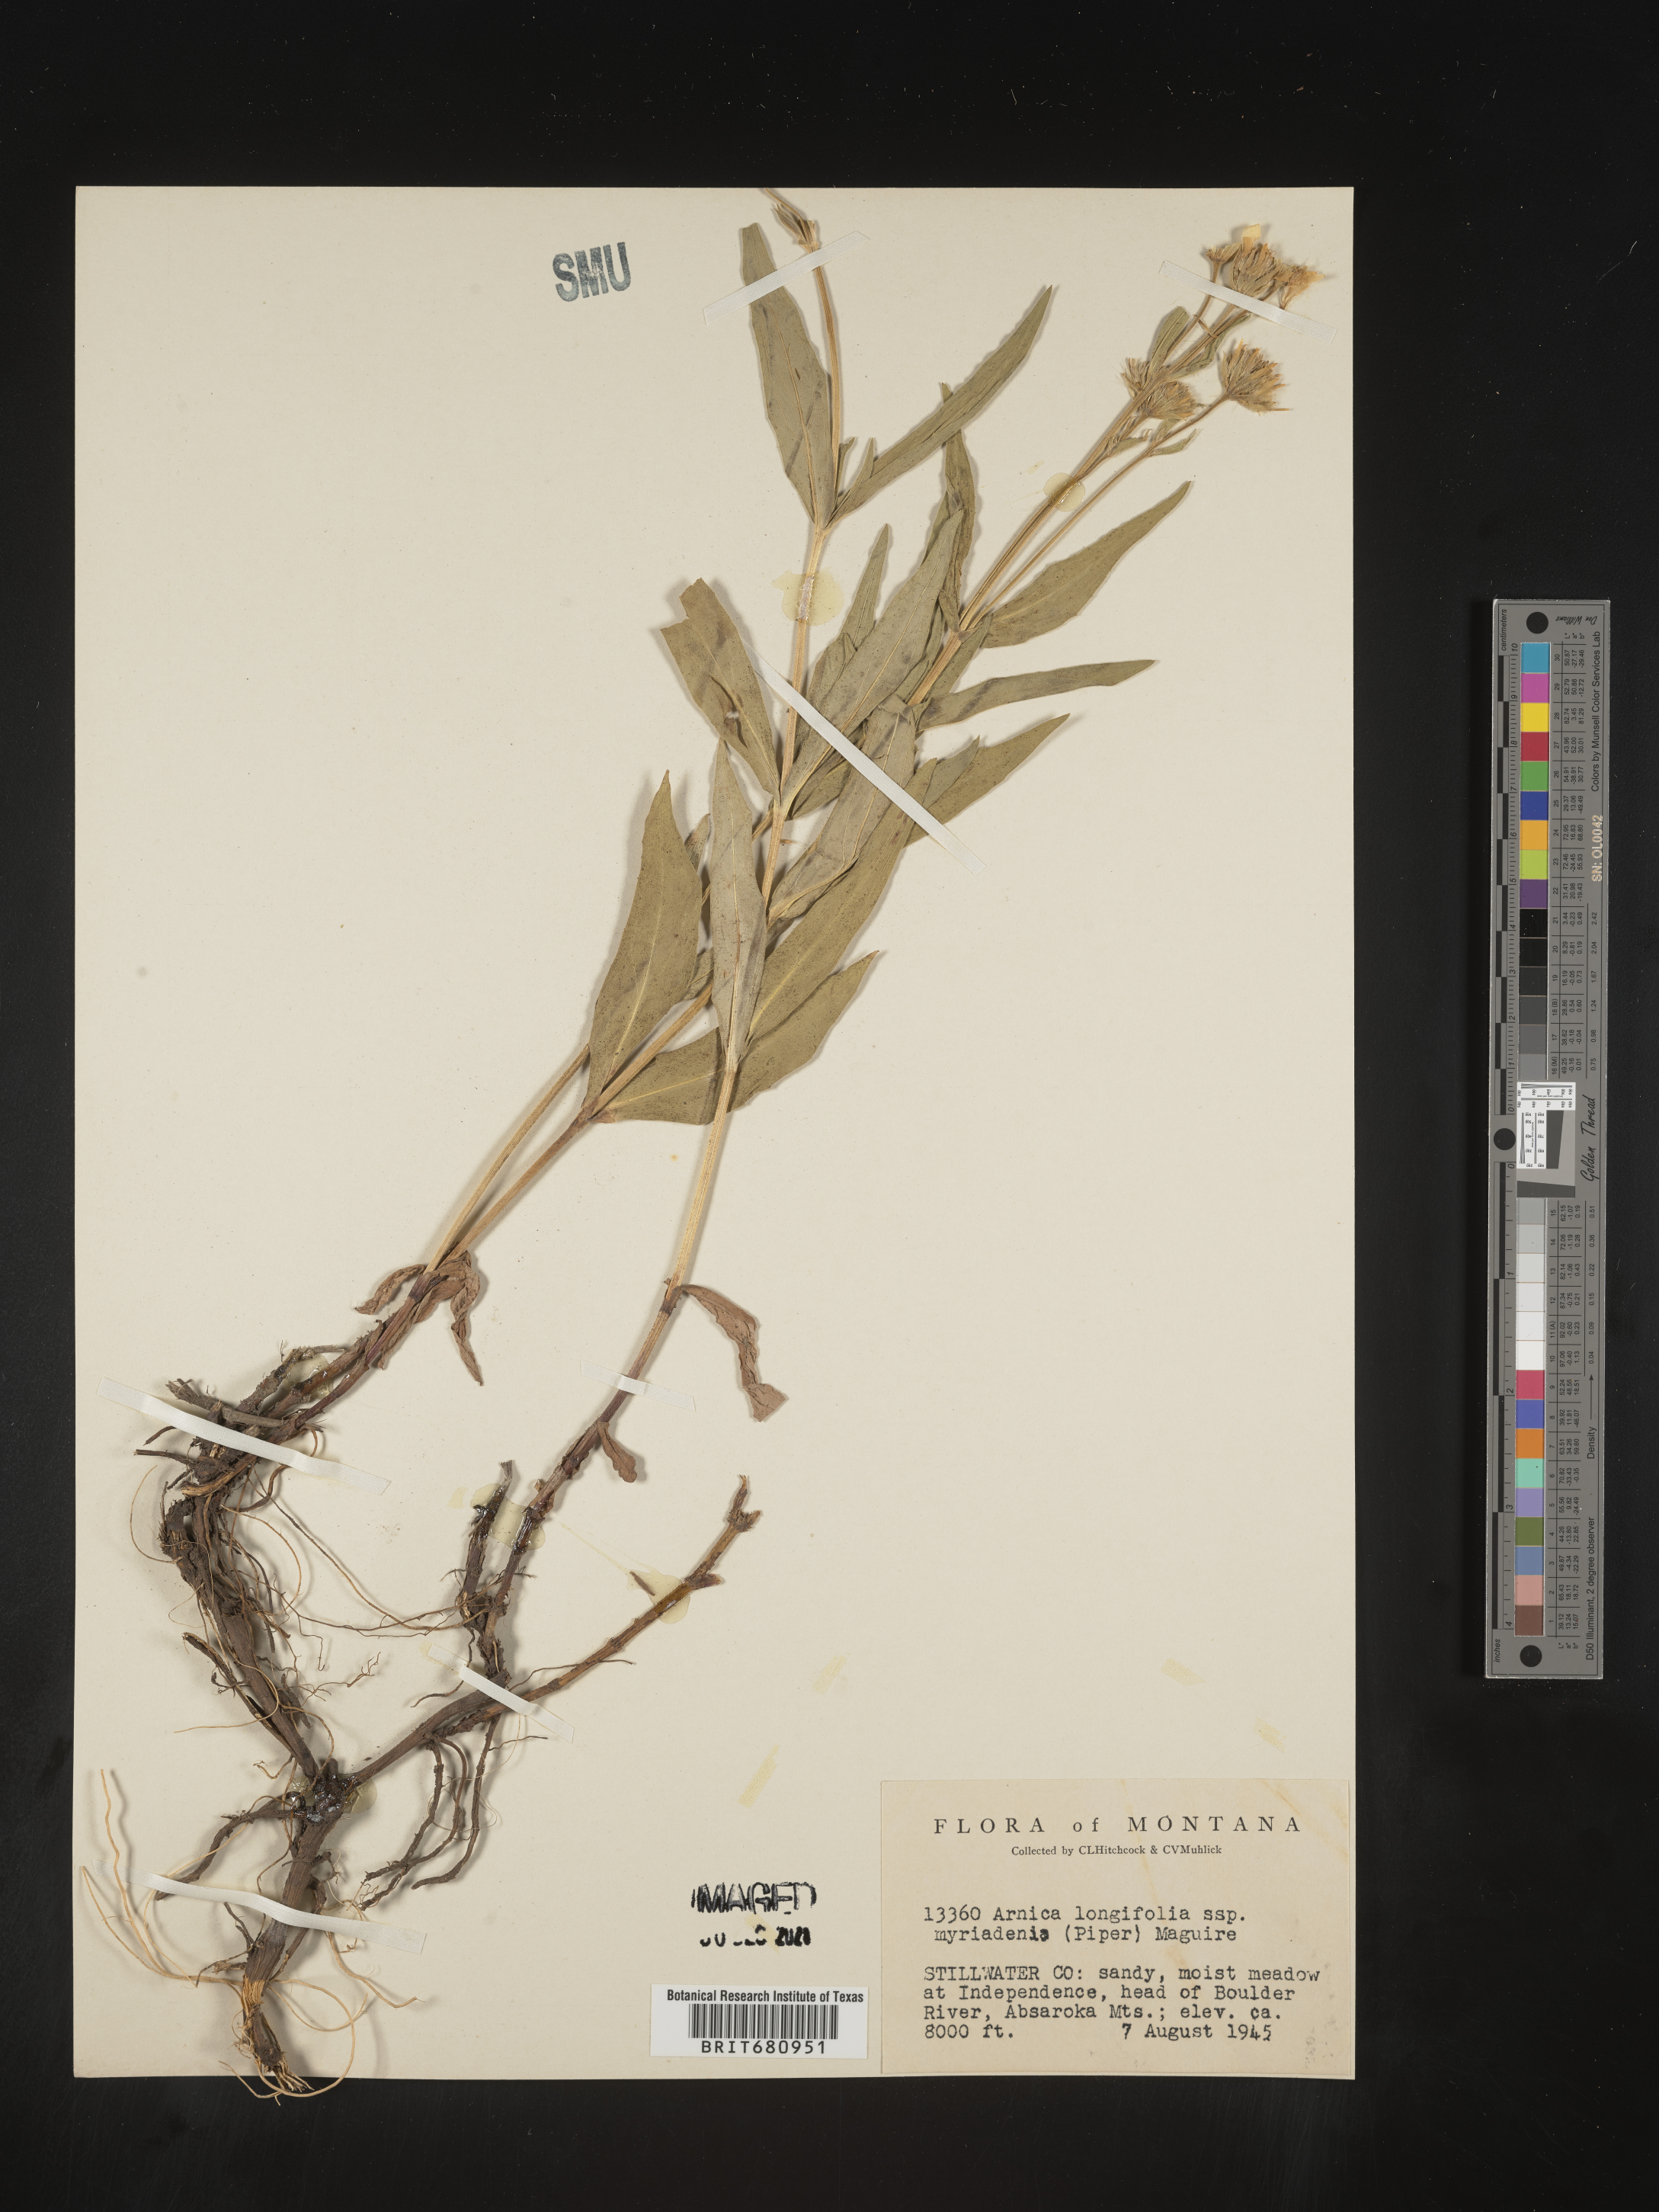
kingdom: Plantae
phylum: Tracheophyta
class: Magnoliopsida
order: Asterales
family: Asteraceae
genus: Arnica
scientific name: Arnica longifolia
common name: Spear-leaf arnica
